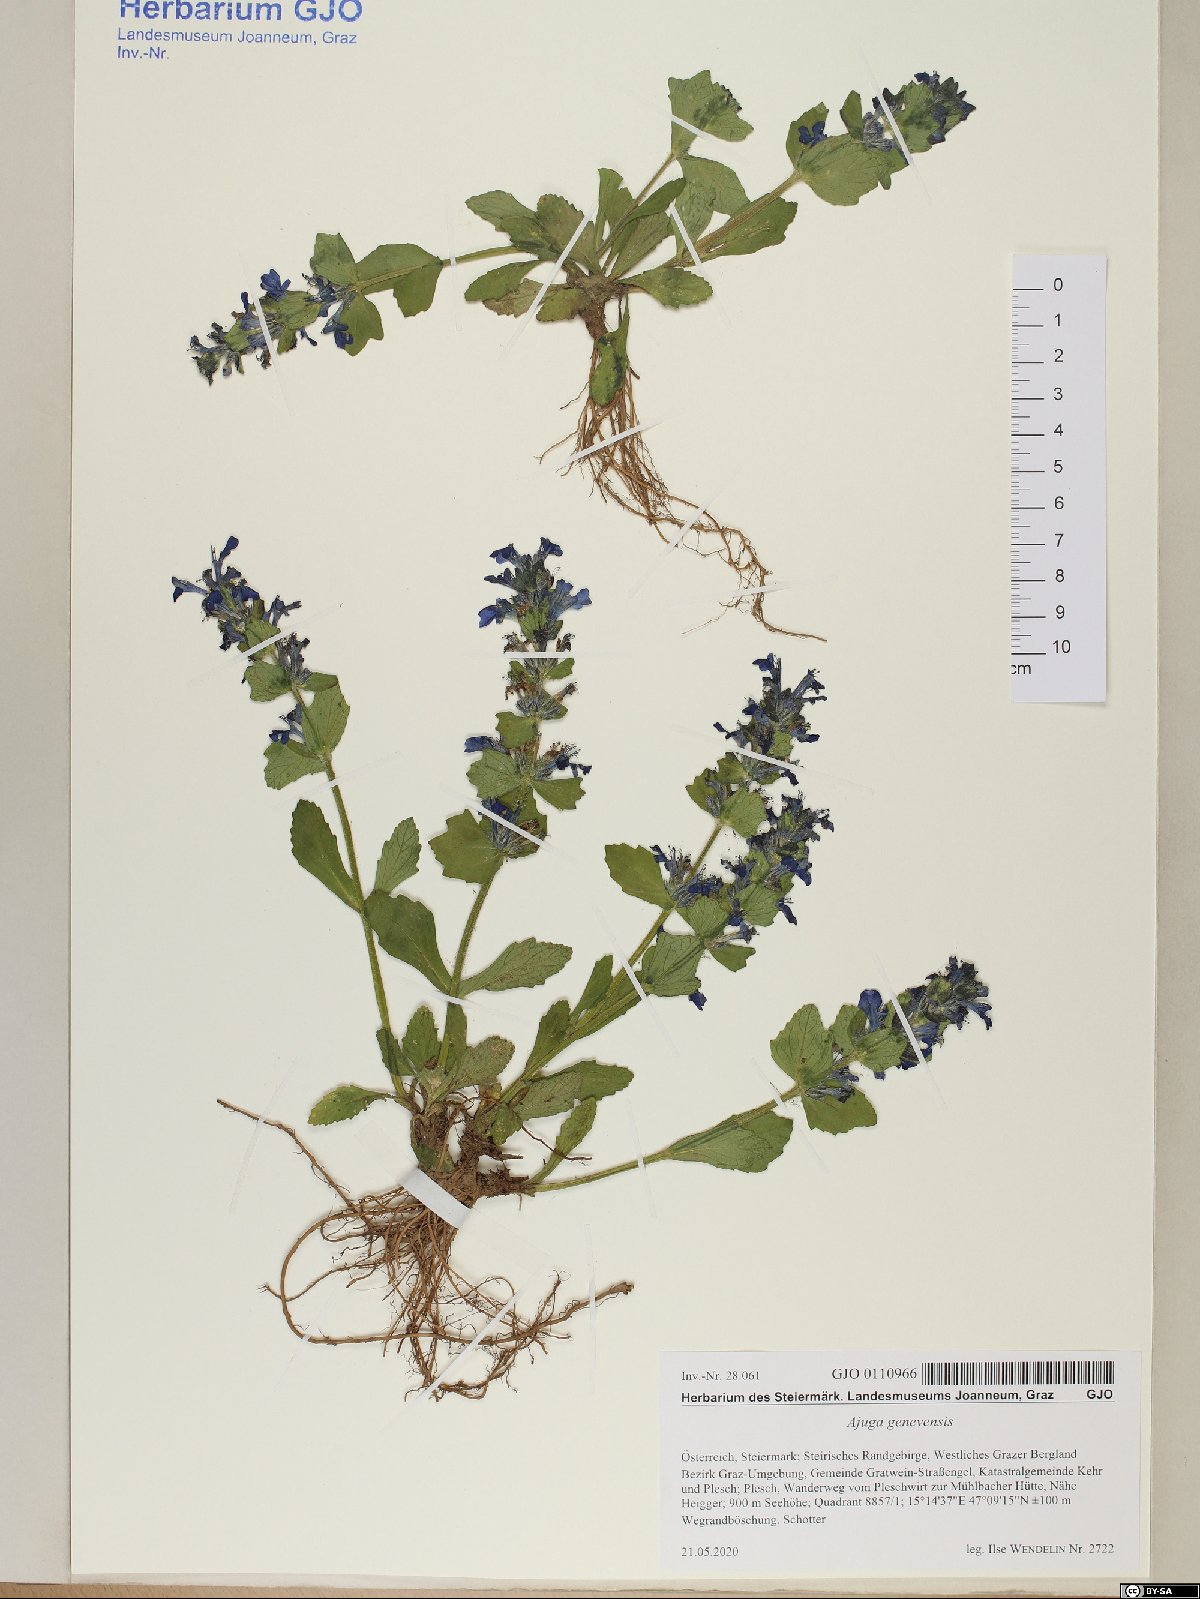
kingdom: Plantae
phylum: Tracheophyta
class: Magnoliopsida
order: Lamiales
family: Lamiaceae
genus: Ajuga
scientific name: Ajuga genevensis
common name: Blue bugle
